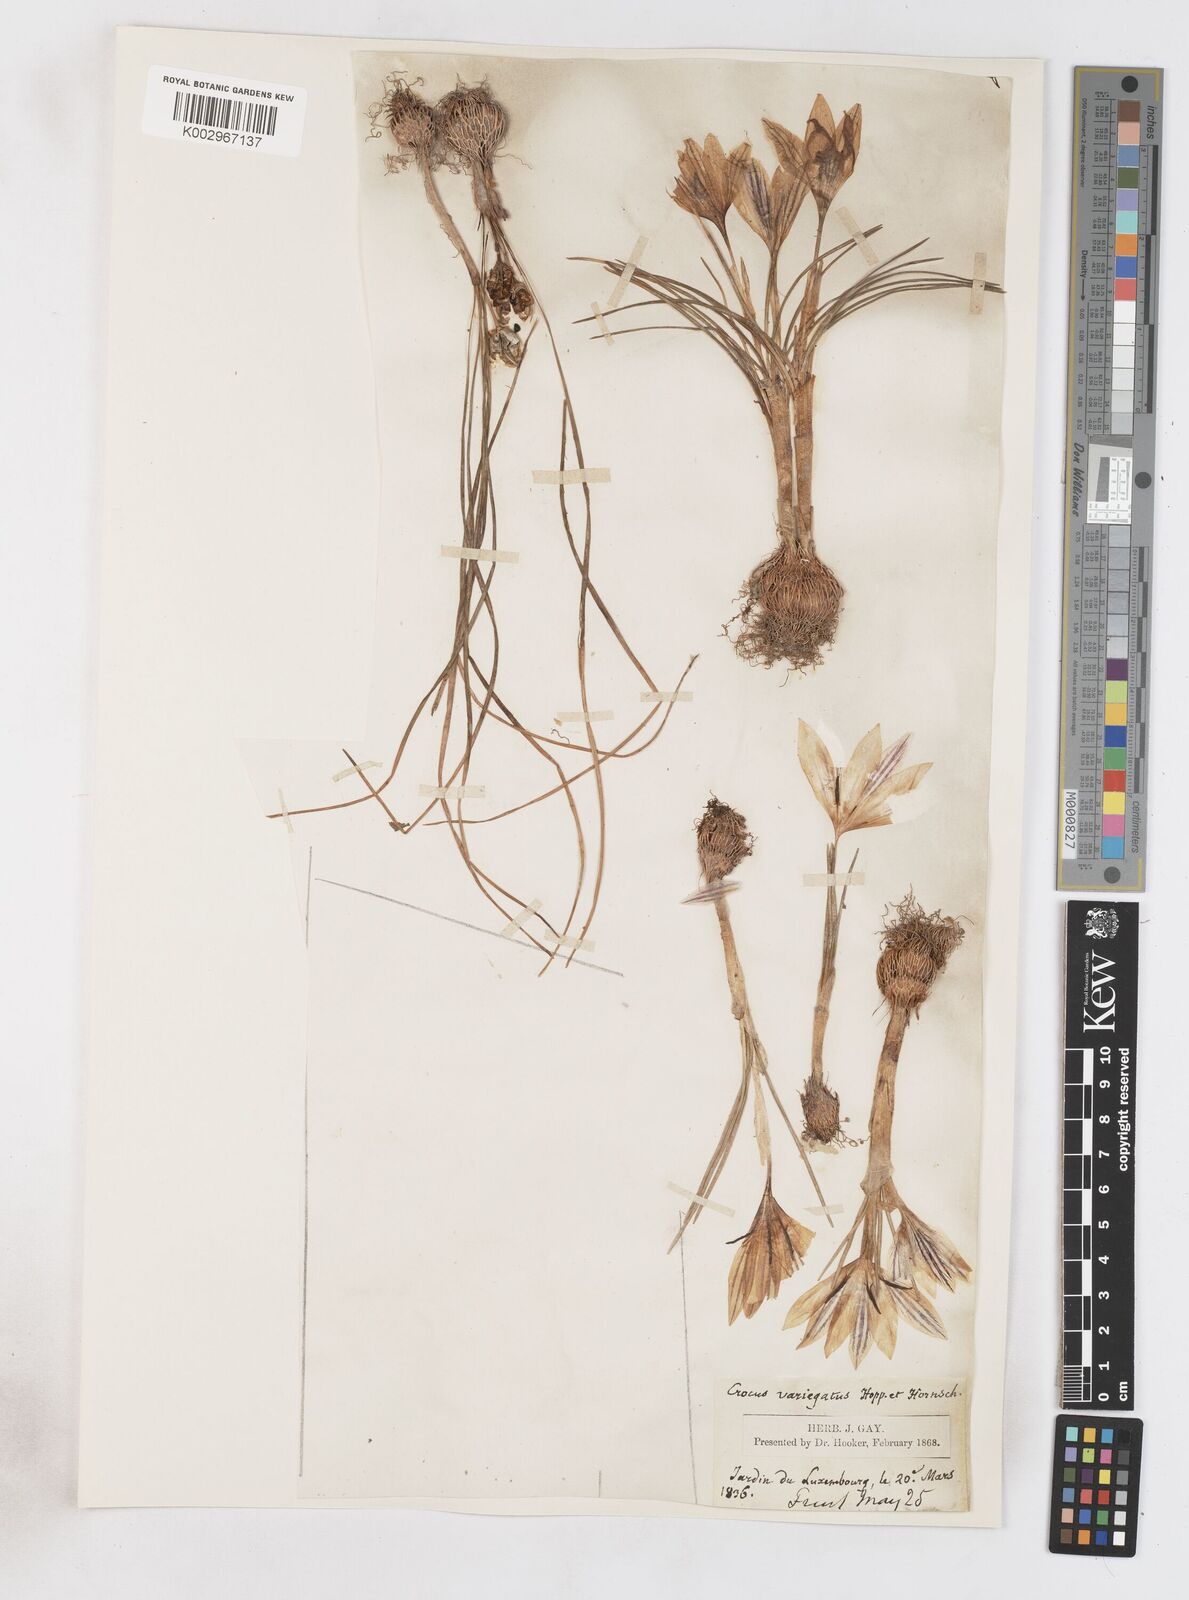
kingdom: Plantae
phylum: Tracheophyta
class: Liliopsida
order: Asparagales
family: Iridaceae
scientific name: Iridaceae
